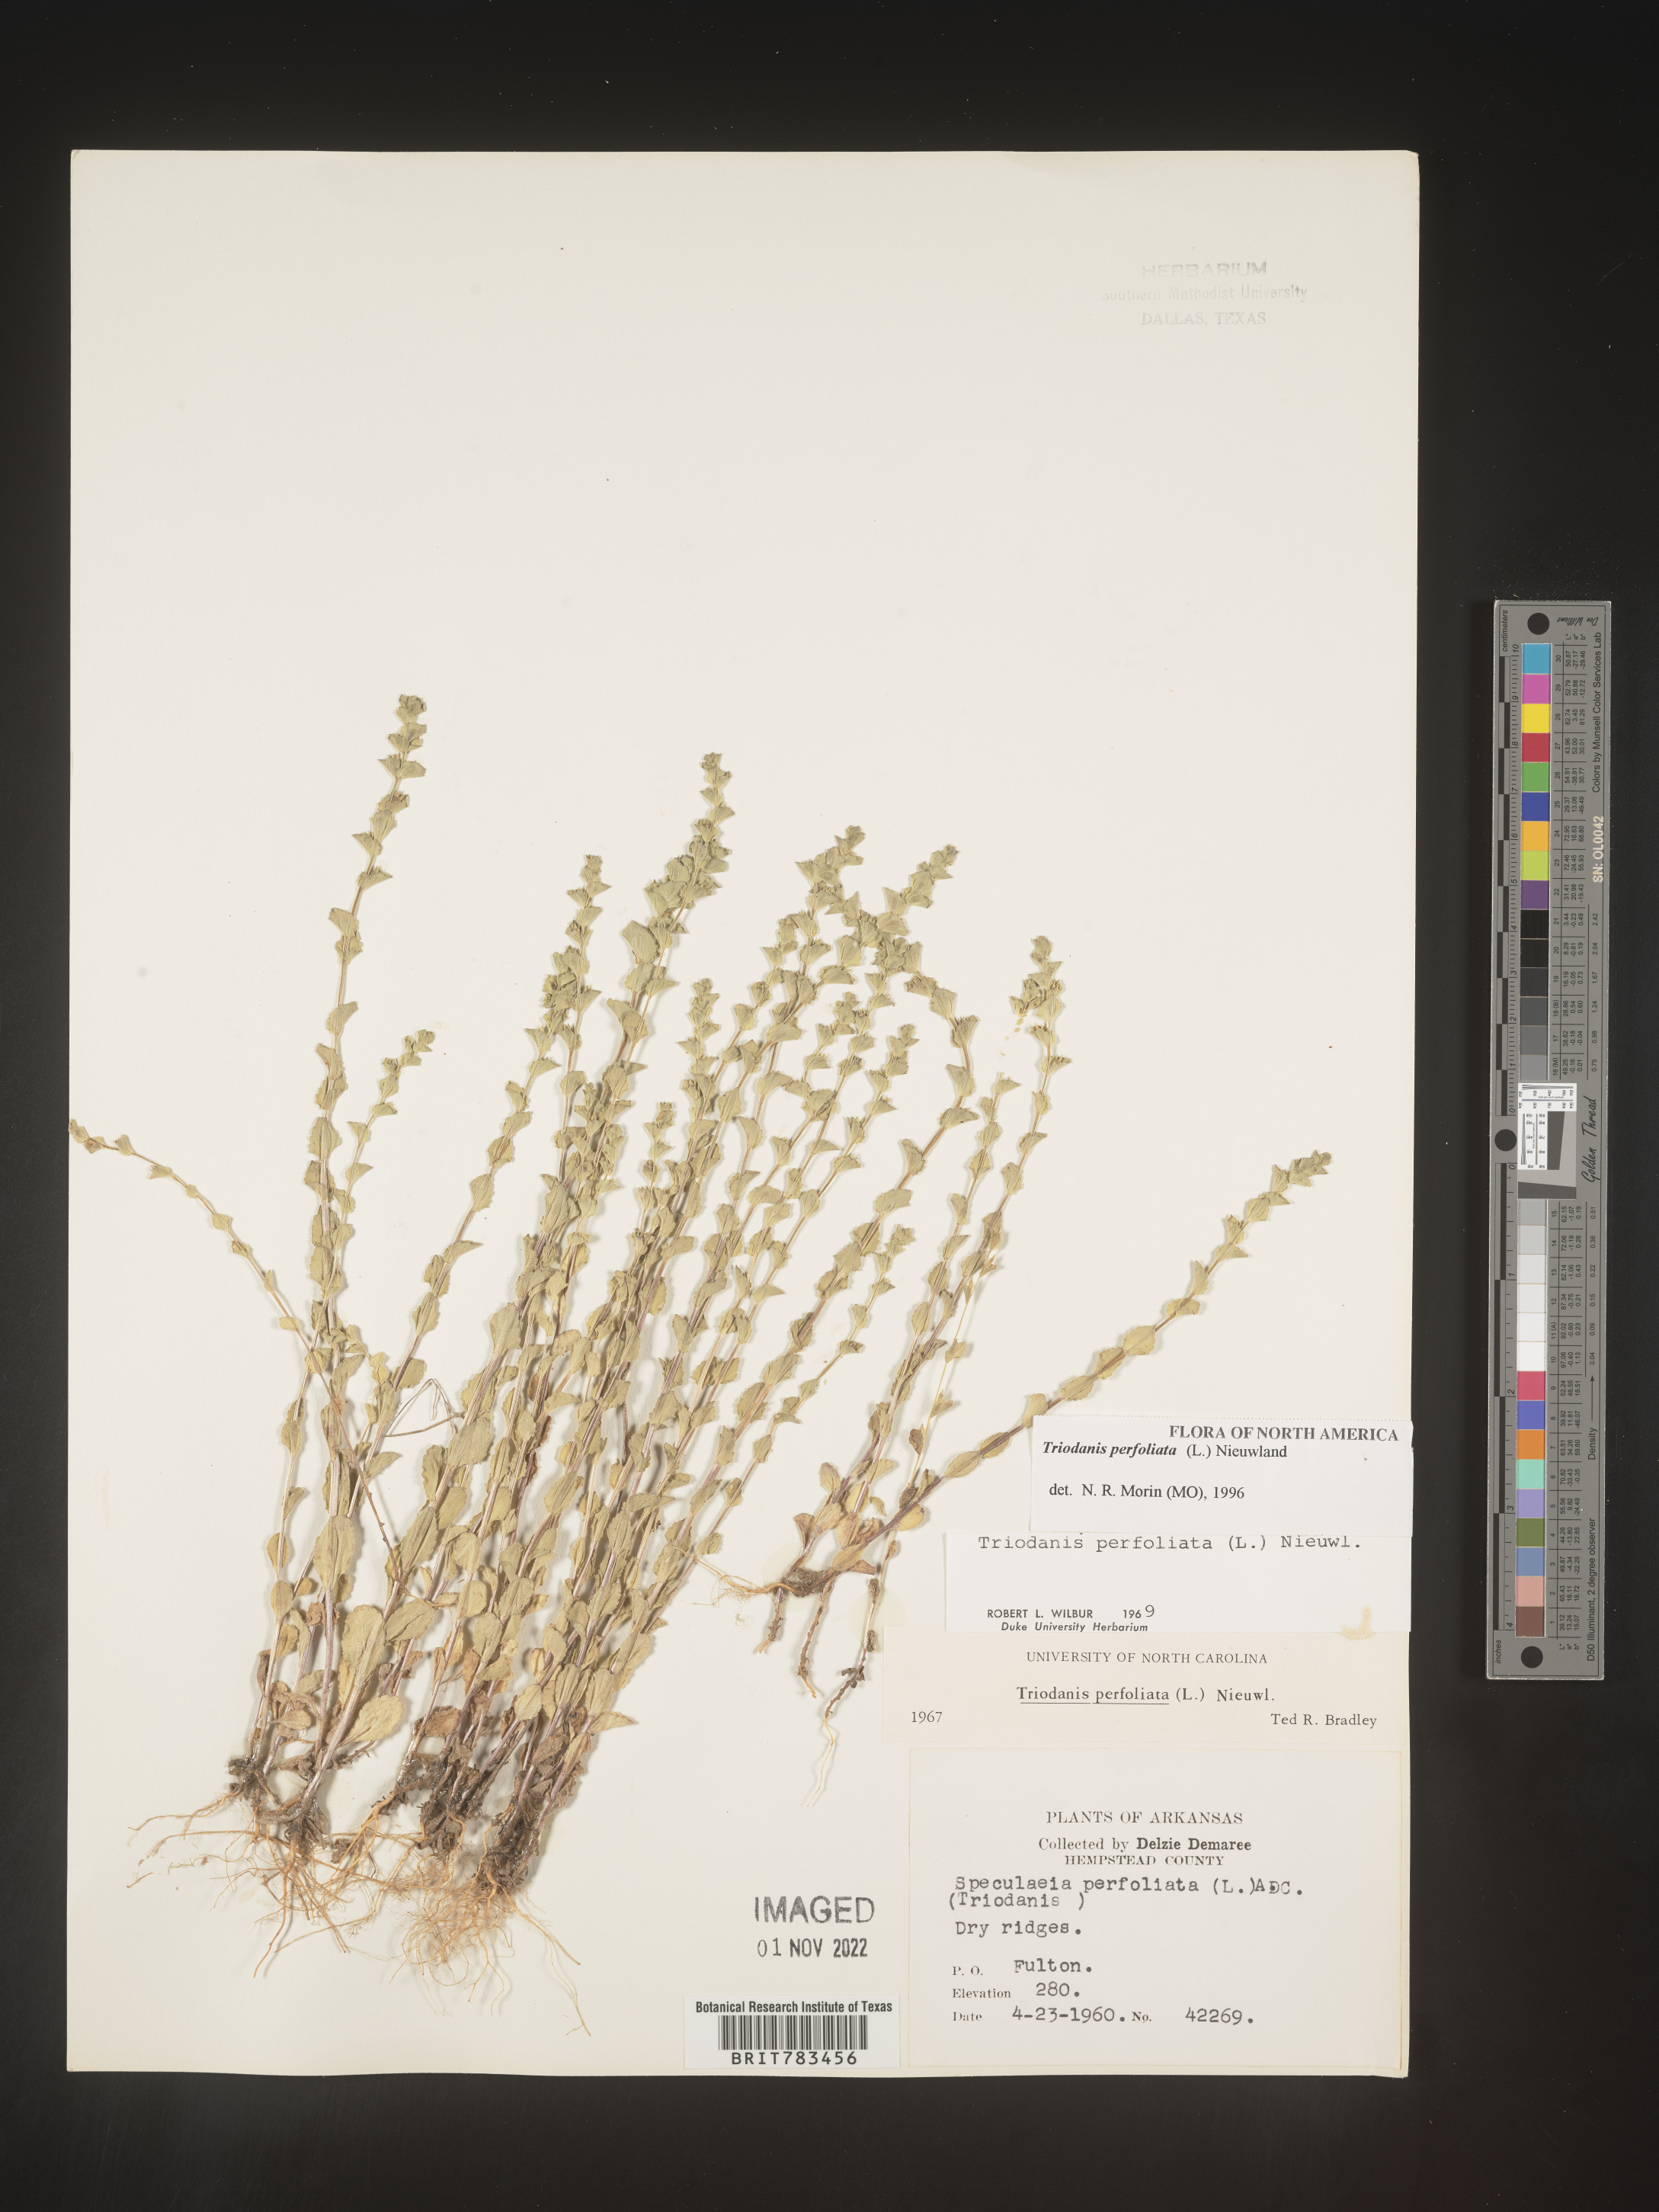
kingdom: Plantae
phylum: Tracheophyta
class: Magnoliopsida
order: Asterales
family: Campanulaceae
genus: Triodanis
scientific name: Triodanis perfoliata
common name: Clasping venus' looking-glass
